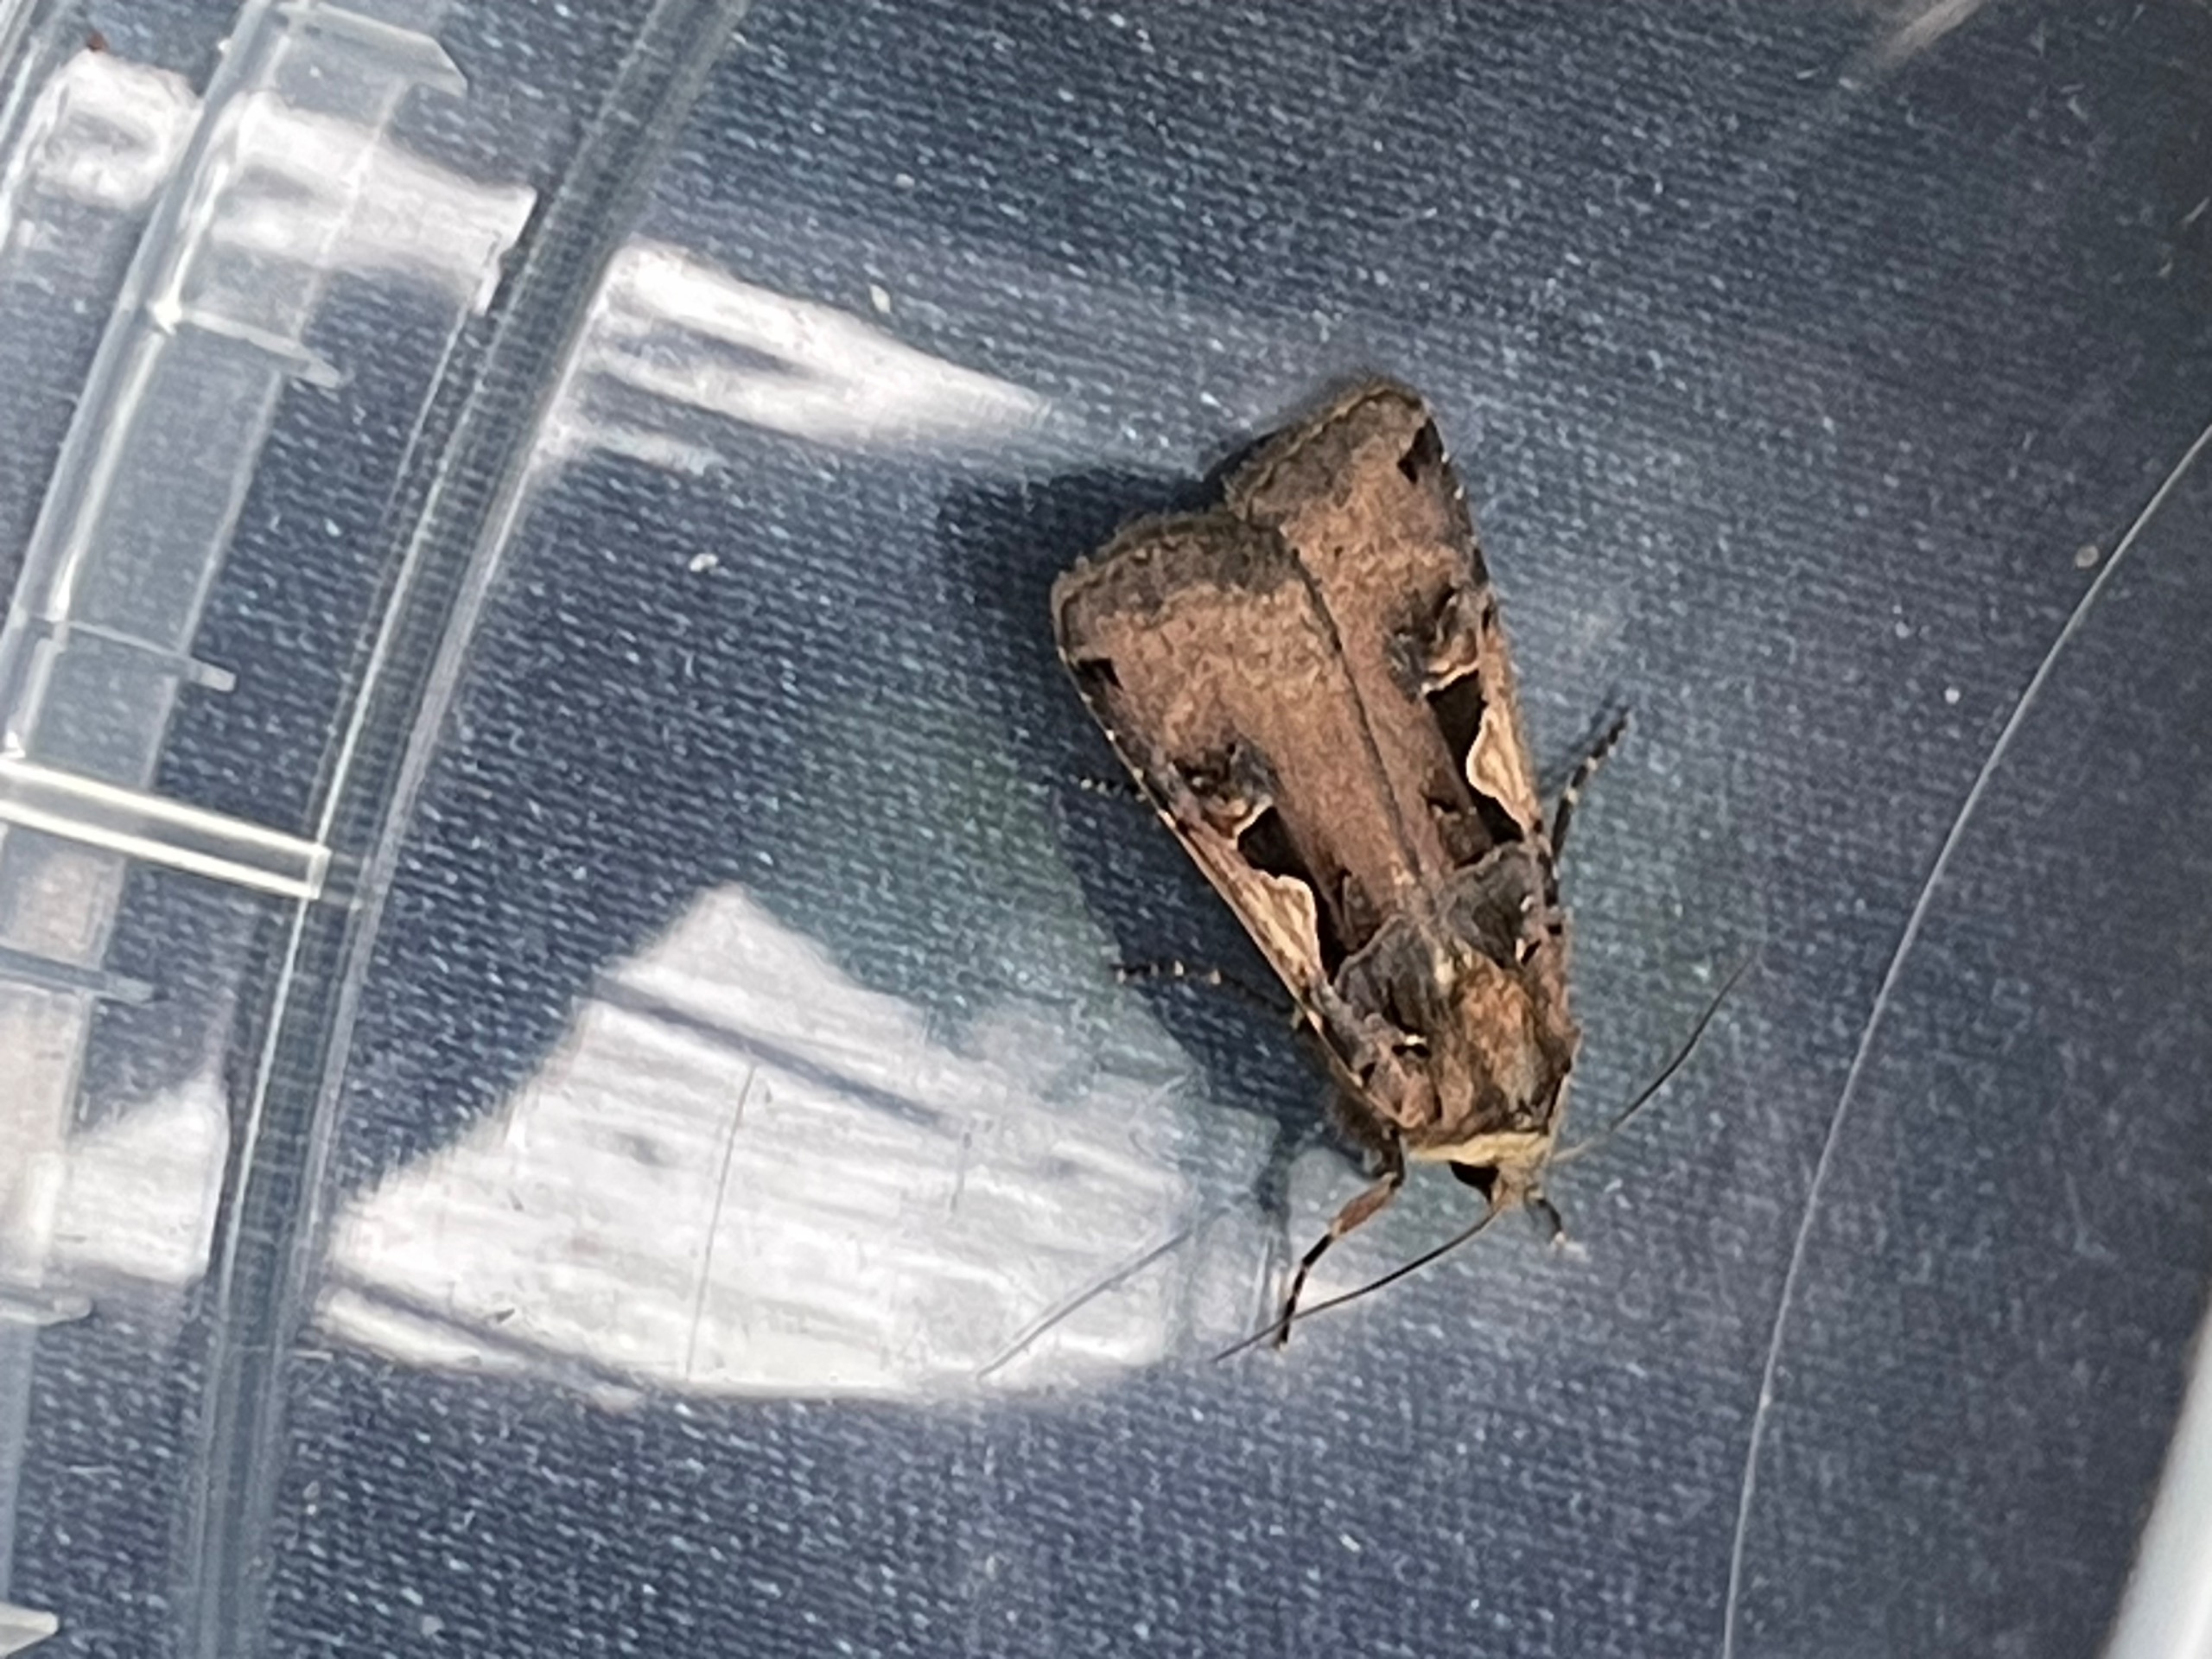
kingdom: Animalia
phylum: Arthropoda
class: Insecta
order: Lepidoptera
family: Noctuidae
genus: Xestia
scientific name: Xestia c-nigrum
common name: Det sorte c
